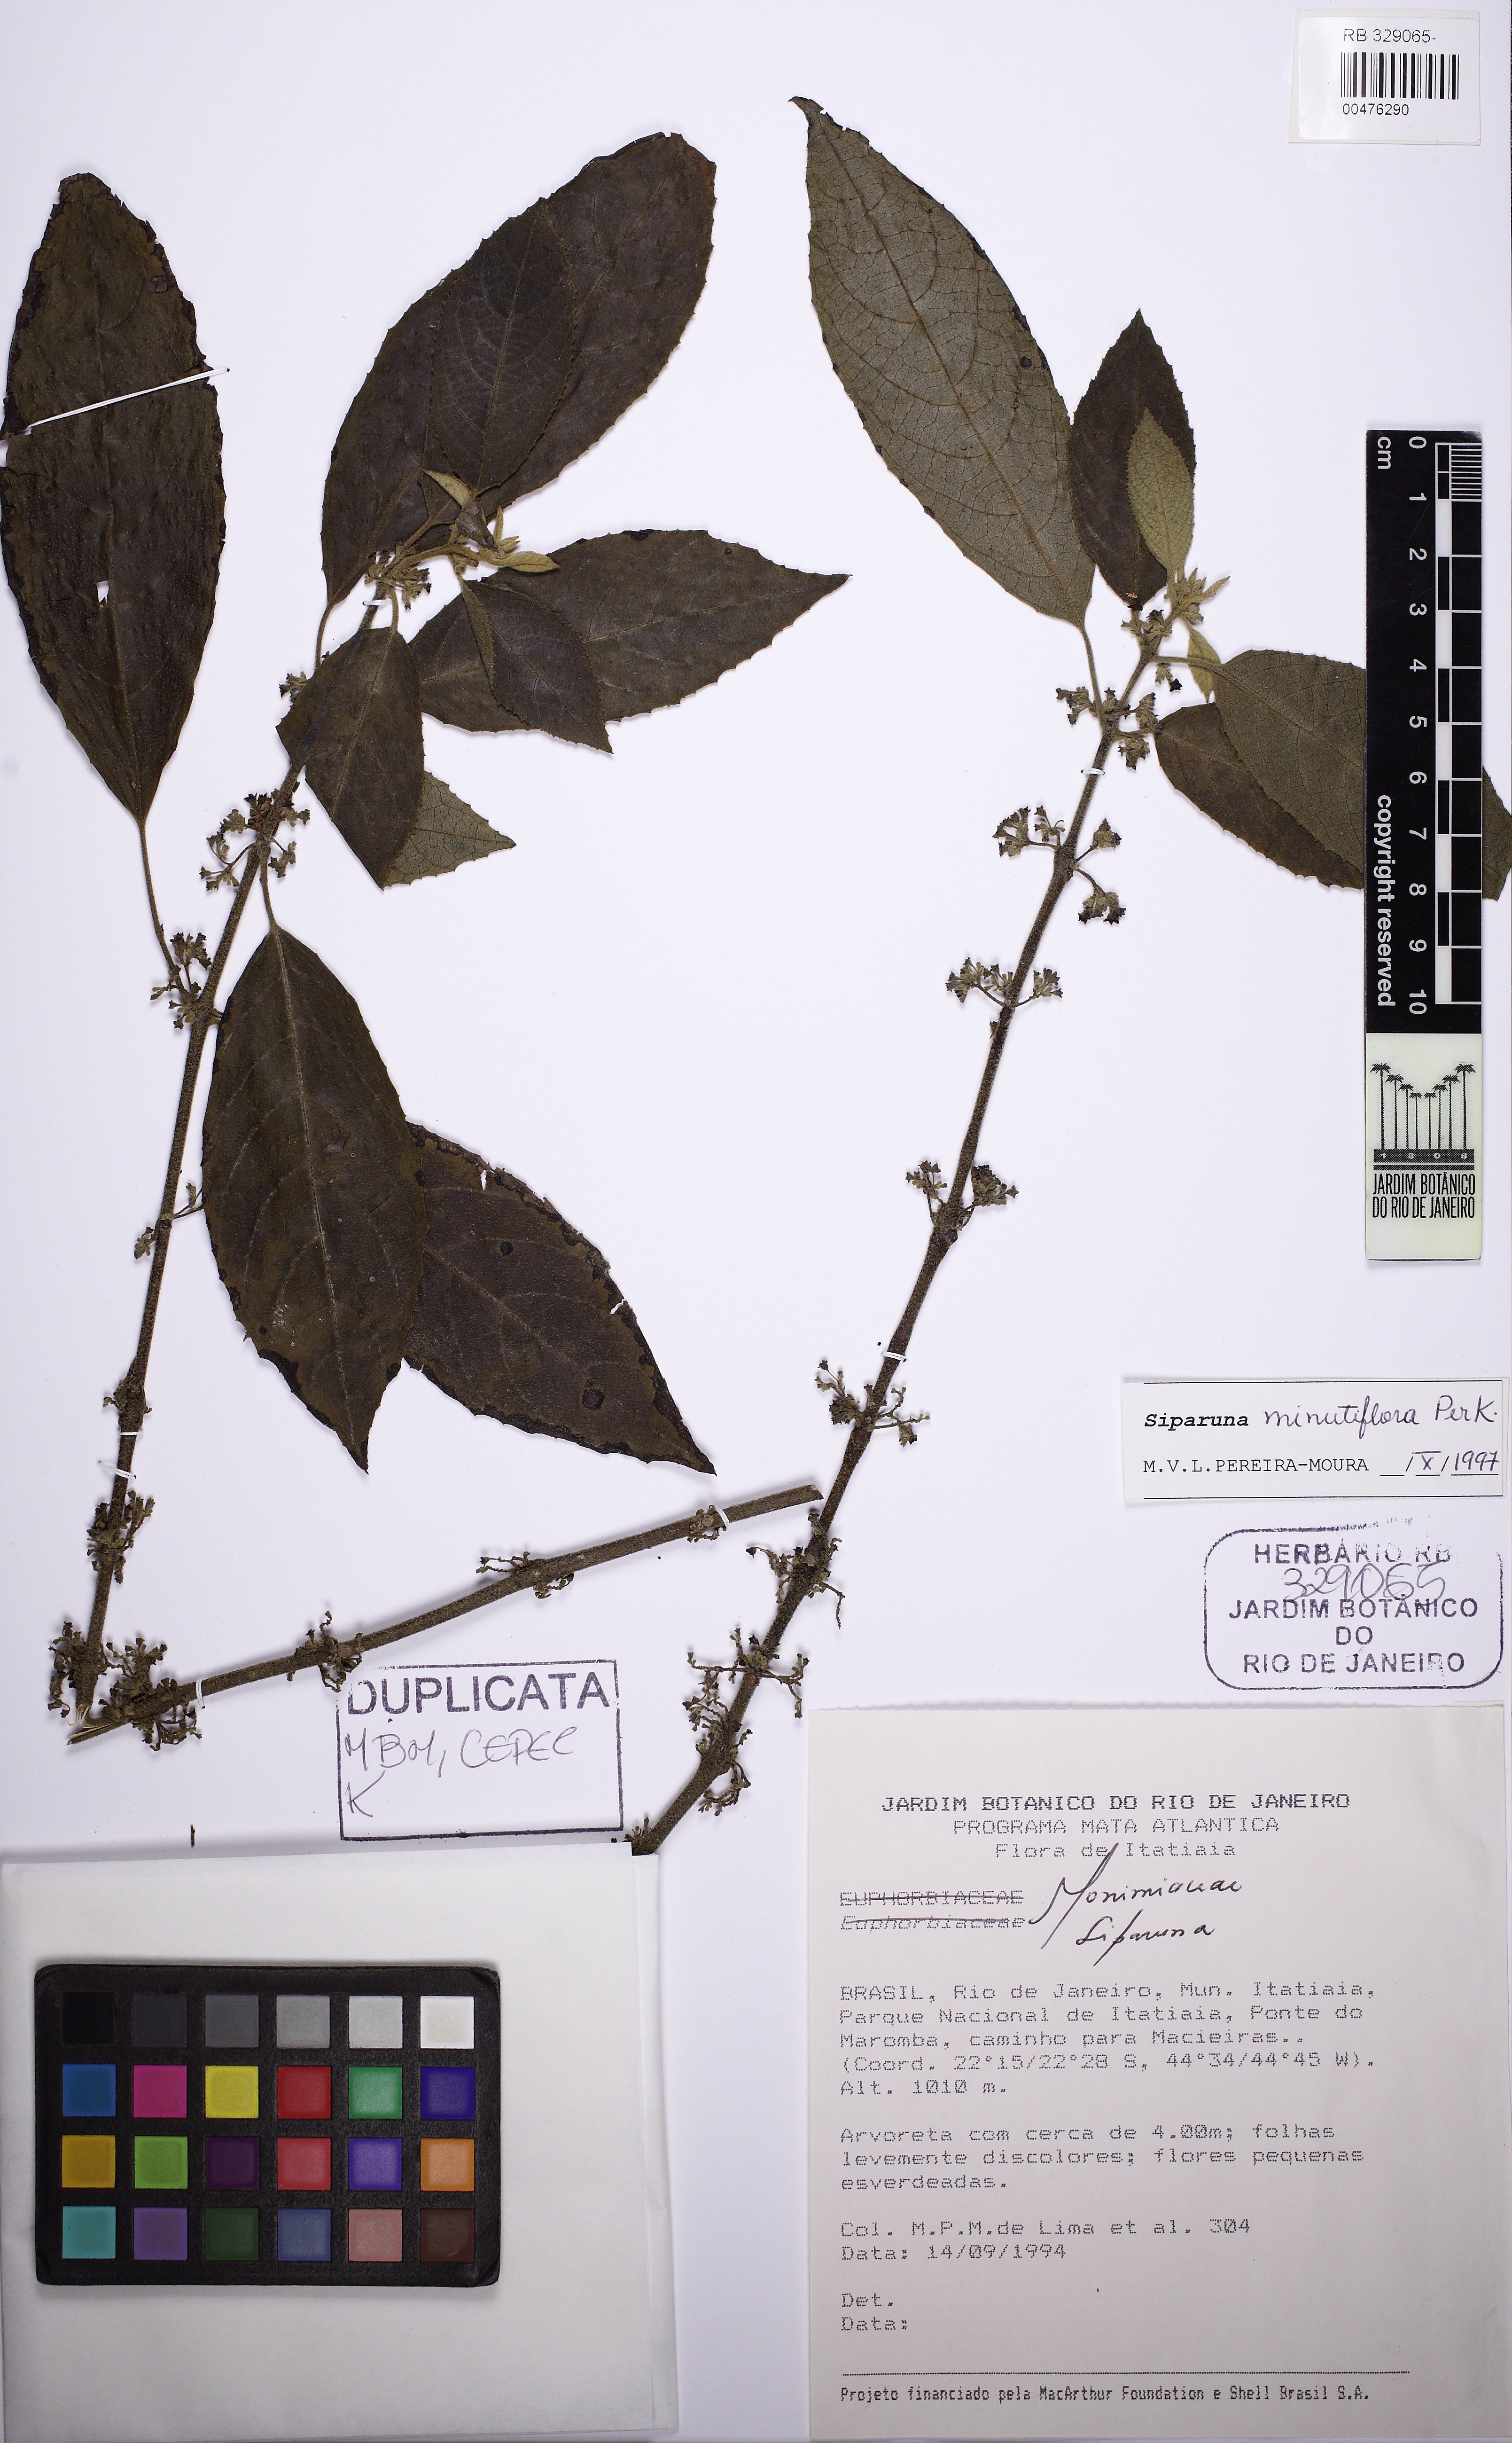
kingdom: Plantae
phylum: Tracheophyta
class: Magnoliopsida
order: Laurales
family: Siparunaceae
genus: Siparuna
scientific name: Siparuna brasiliensis
